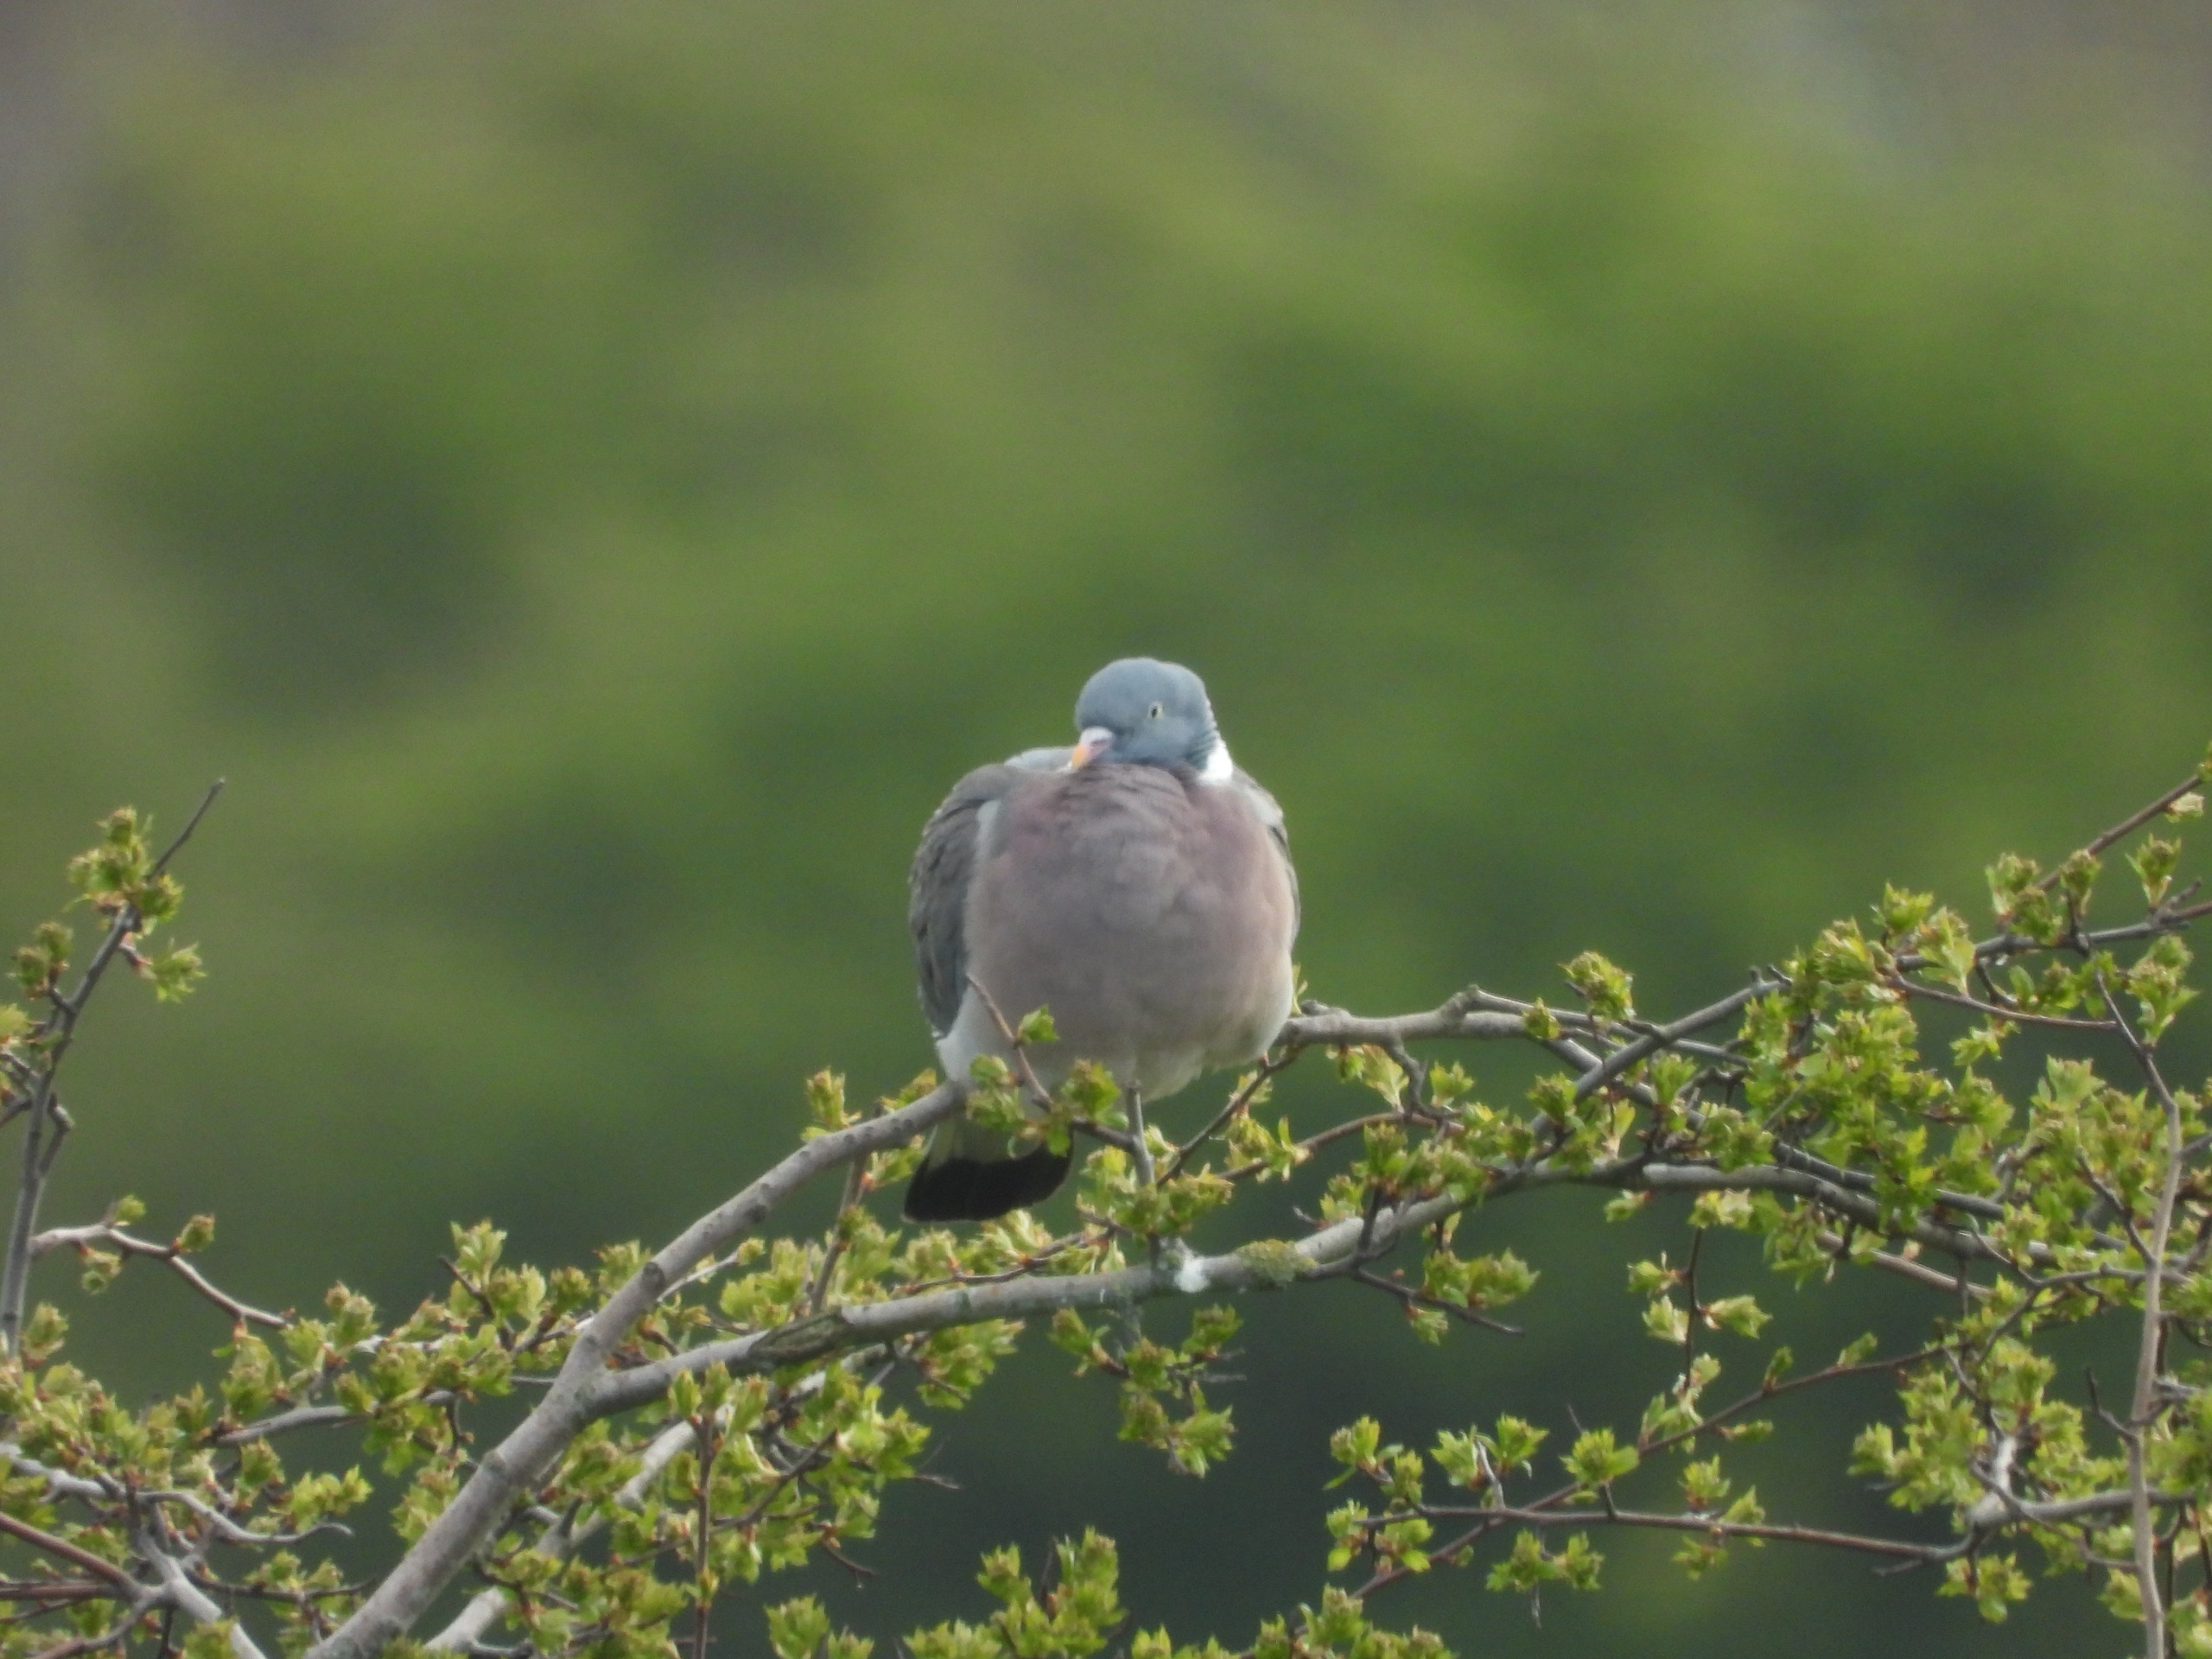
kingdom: Animalia
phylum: Chordata
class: Aves
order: Columbiformes
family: Columbidae
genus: Columba
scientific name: Columba palumbus
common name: Ringdue
